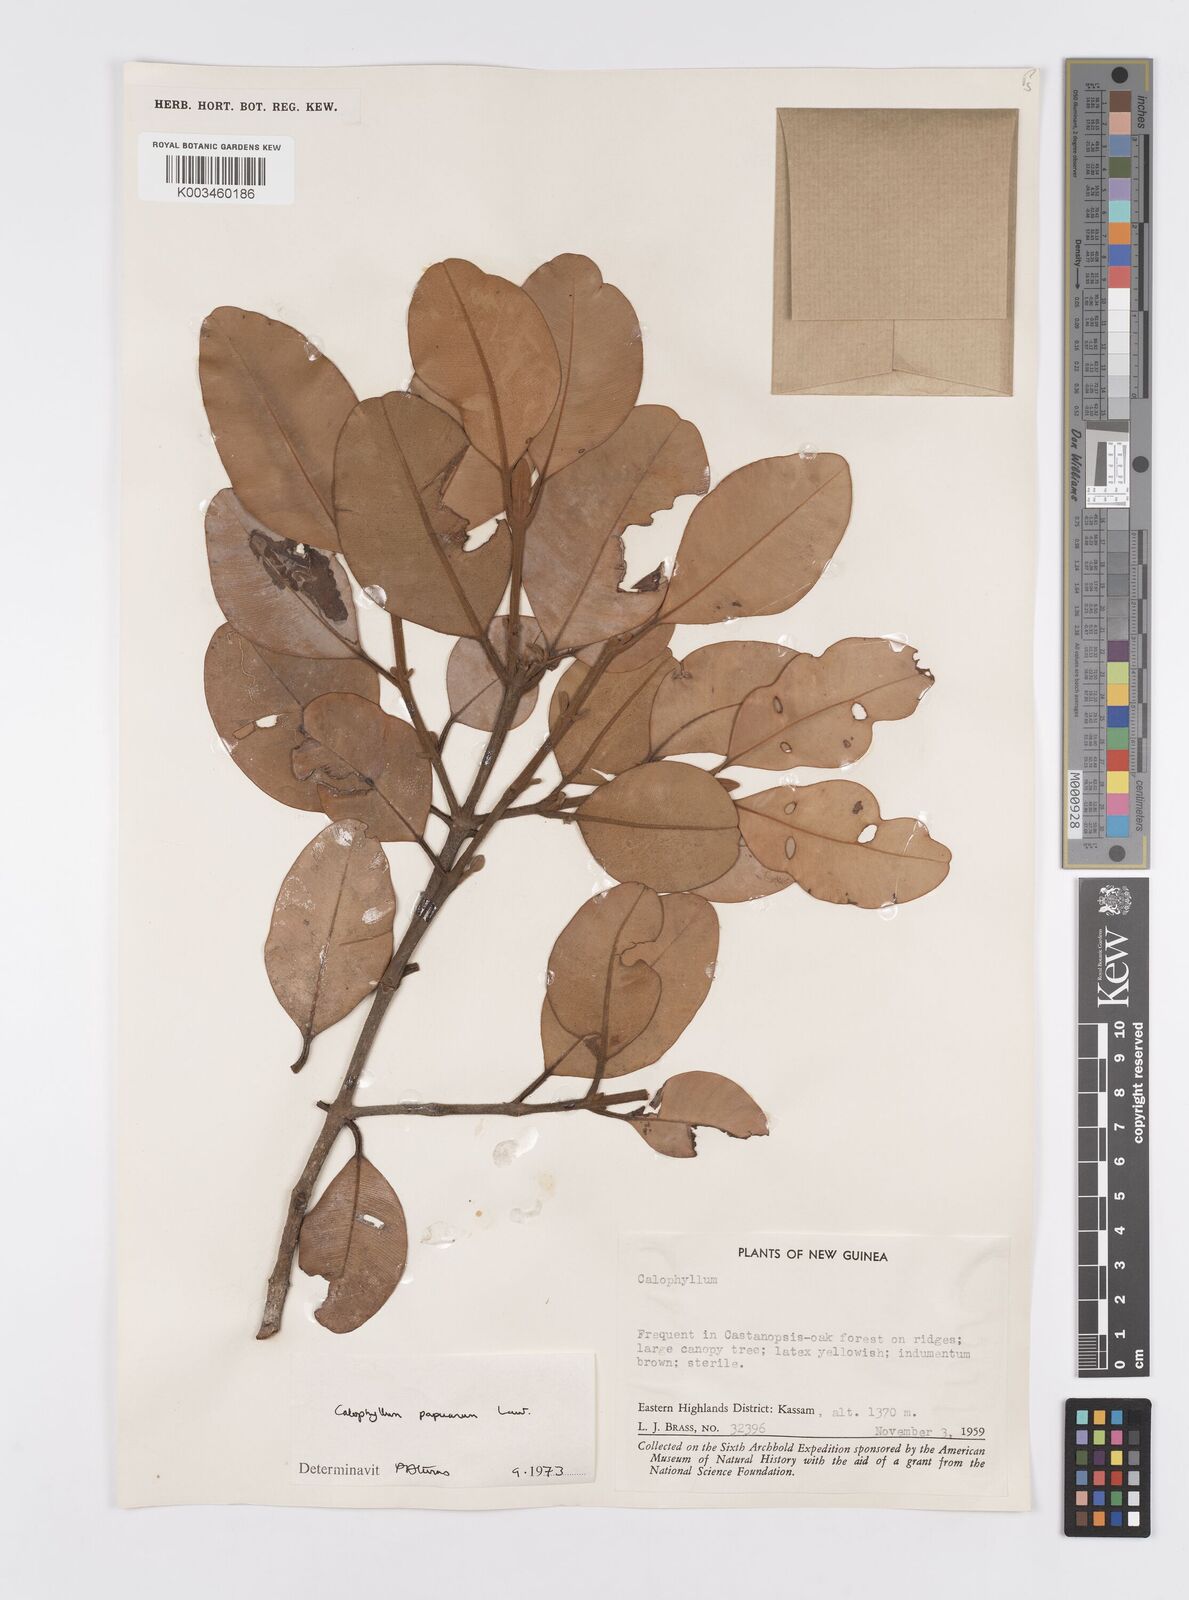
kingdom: Plantae
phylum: Tracheophyta
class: Magnoliopsida
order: Malpighiales
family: Calophyllaceae
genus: Calophyllum
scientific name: Calophyllum papuanum
